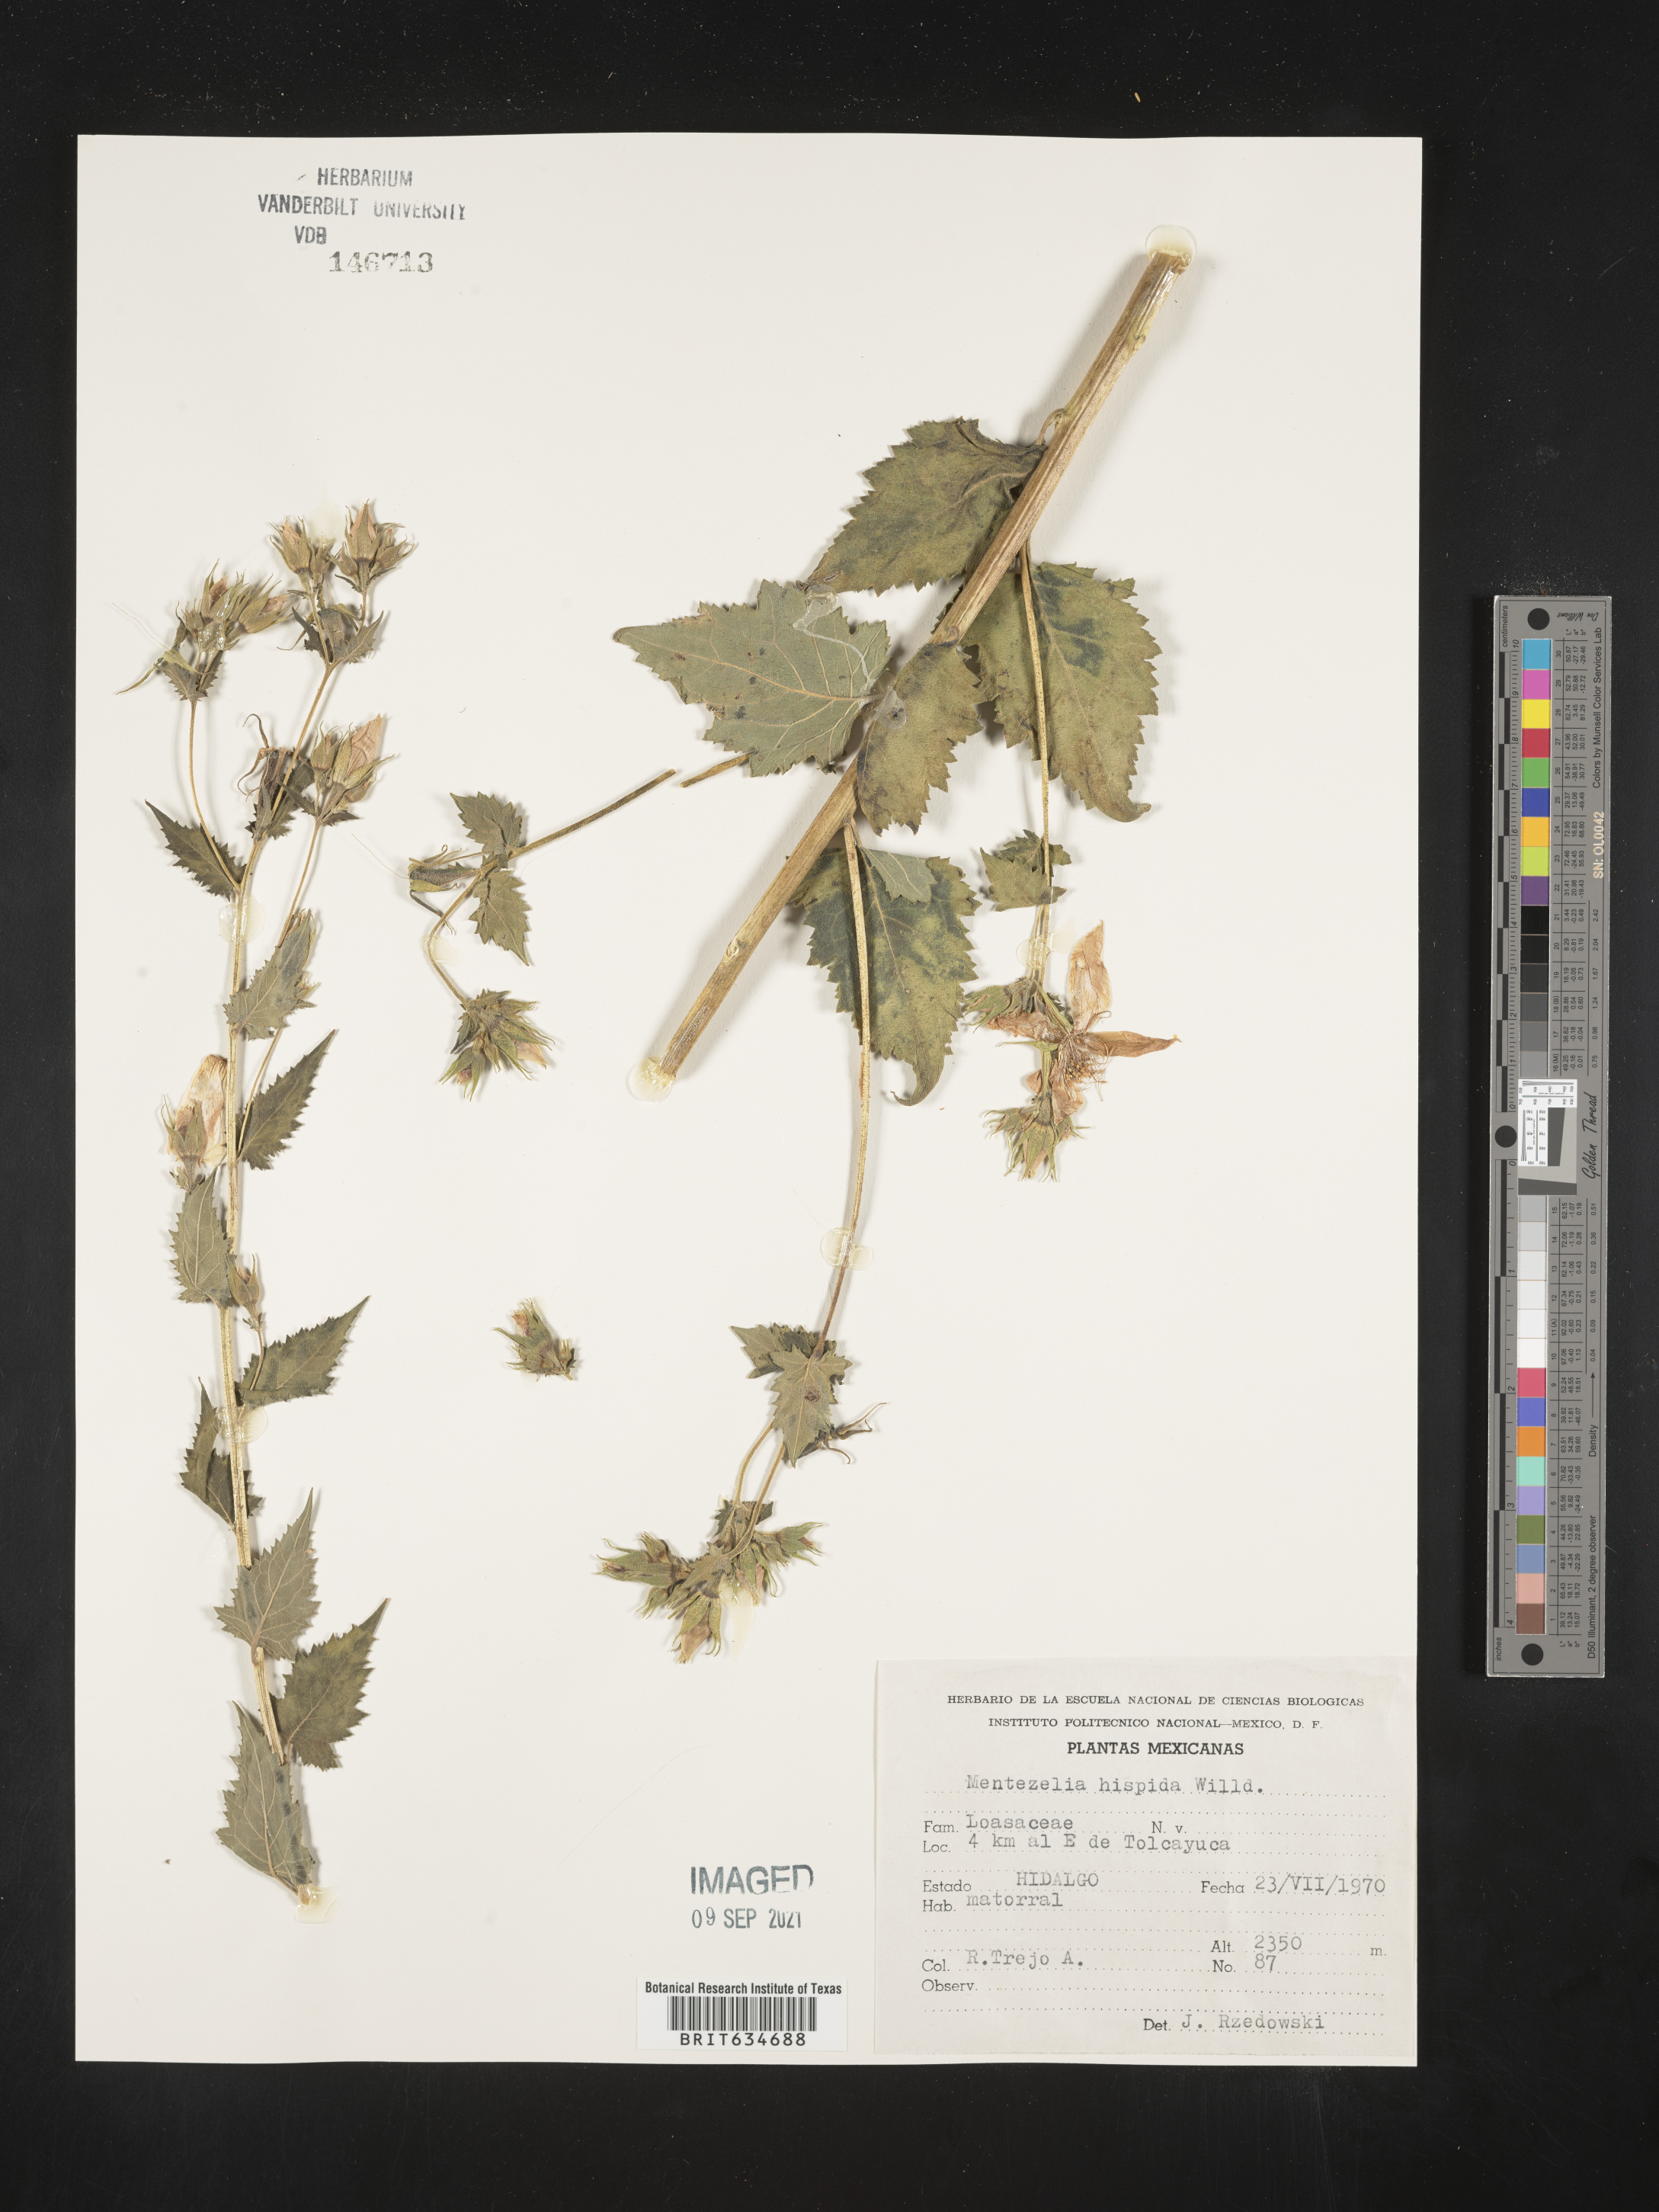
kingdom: Plantae
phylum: Tracheophyta
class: Magnoliopsida
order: Cornales
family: Loasaceae
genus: Mentzelia
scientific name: Mentzelia
